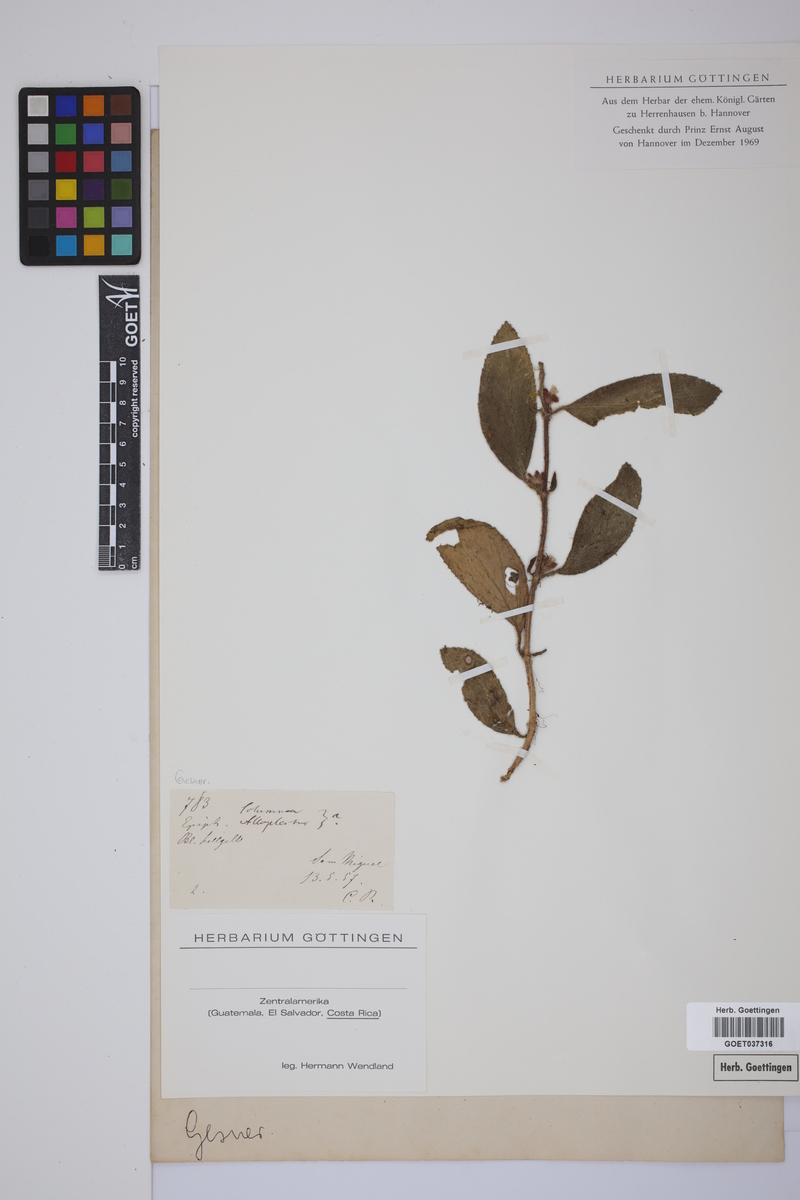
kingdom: Plantae
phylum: Tracheophyta
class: Magnoliopsida
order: Lamiales
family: Gesneriaceae
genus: Columnea
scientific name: Columnea
